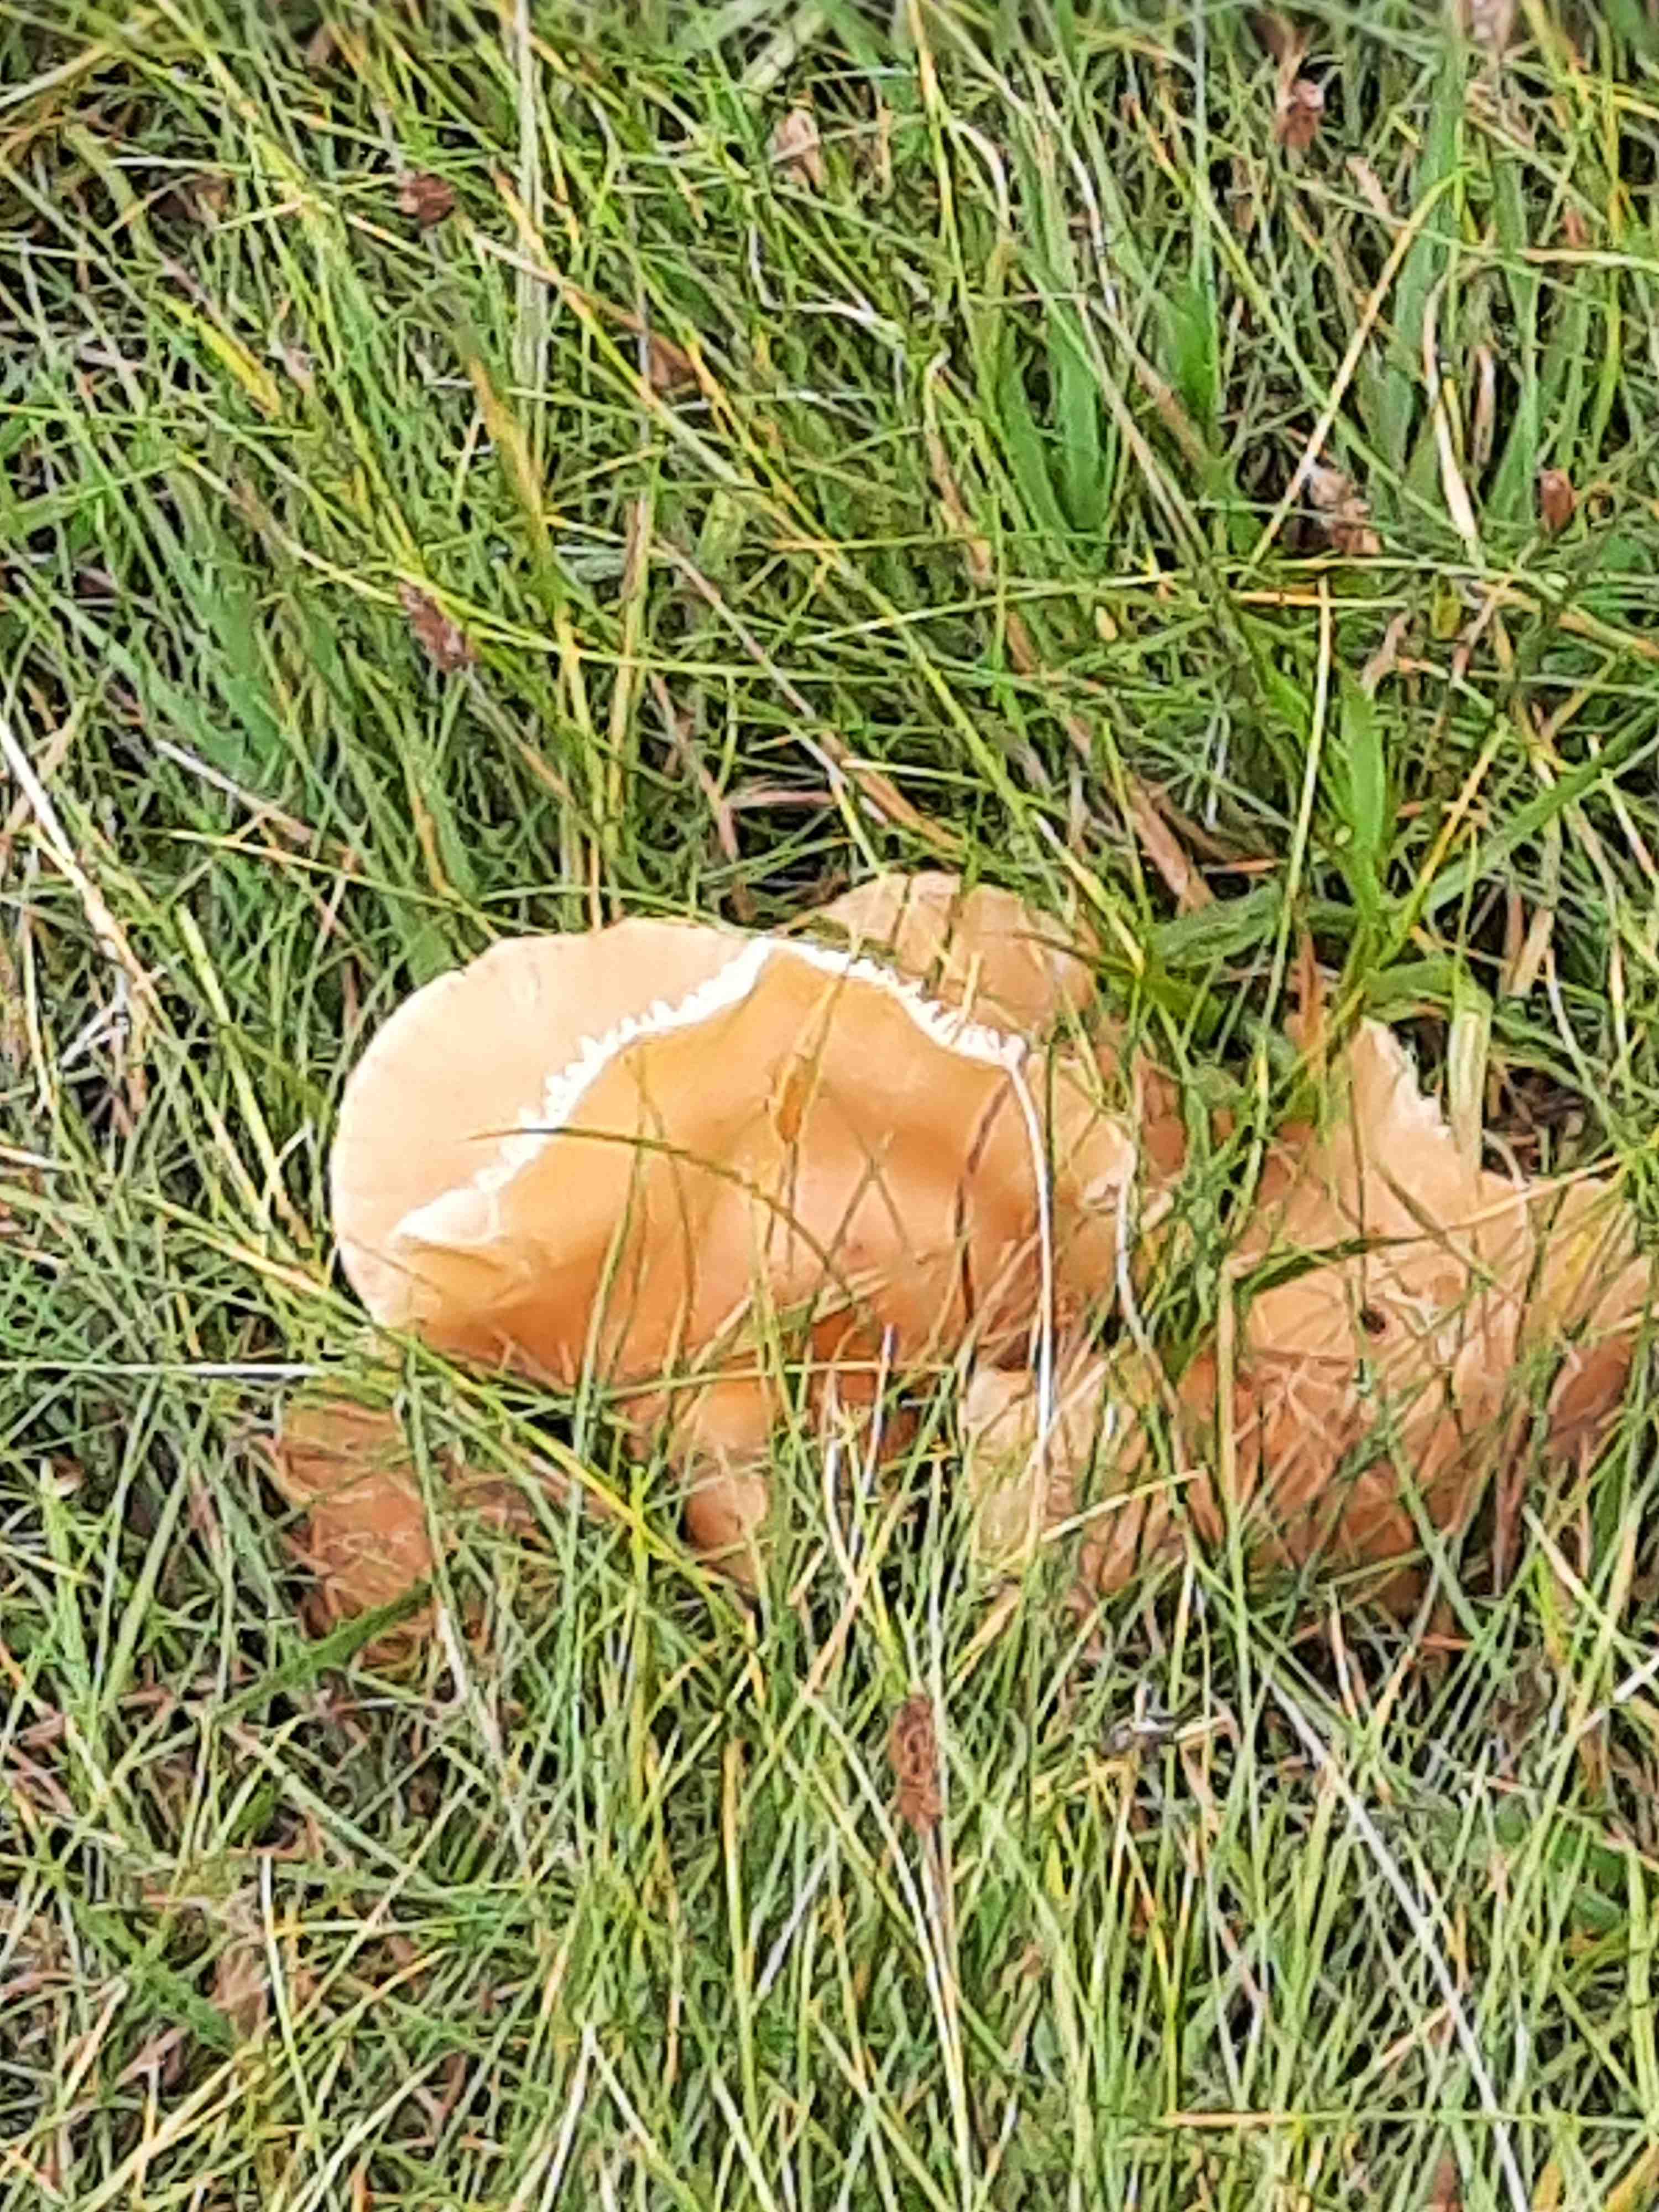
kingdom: Fungi
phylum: Basidiomycota
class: Agaricomycetes
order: Agaricales
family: Hygrophoraceae
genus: Cuphophyllus
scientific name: Cuphophyllus pratensis
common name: eng-vokshat
